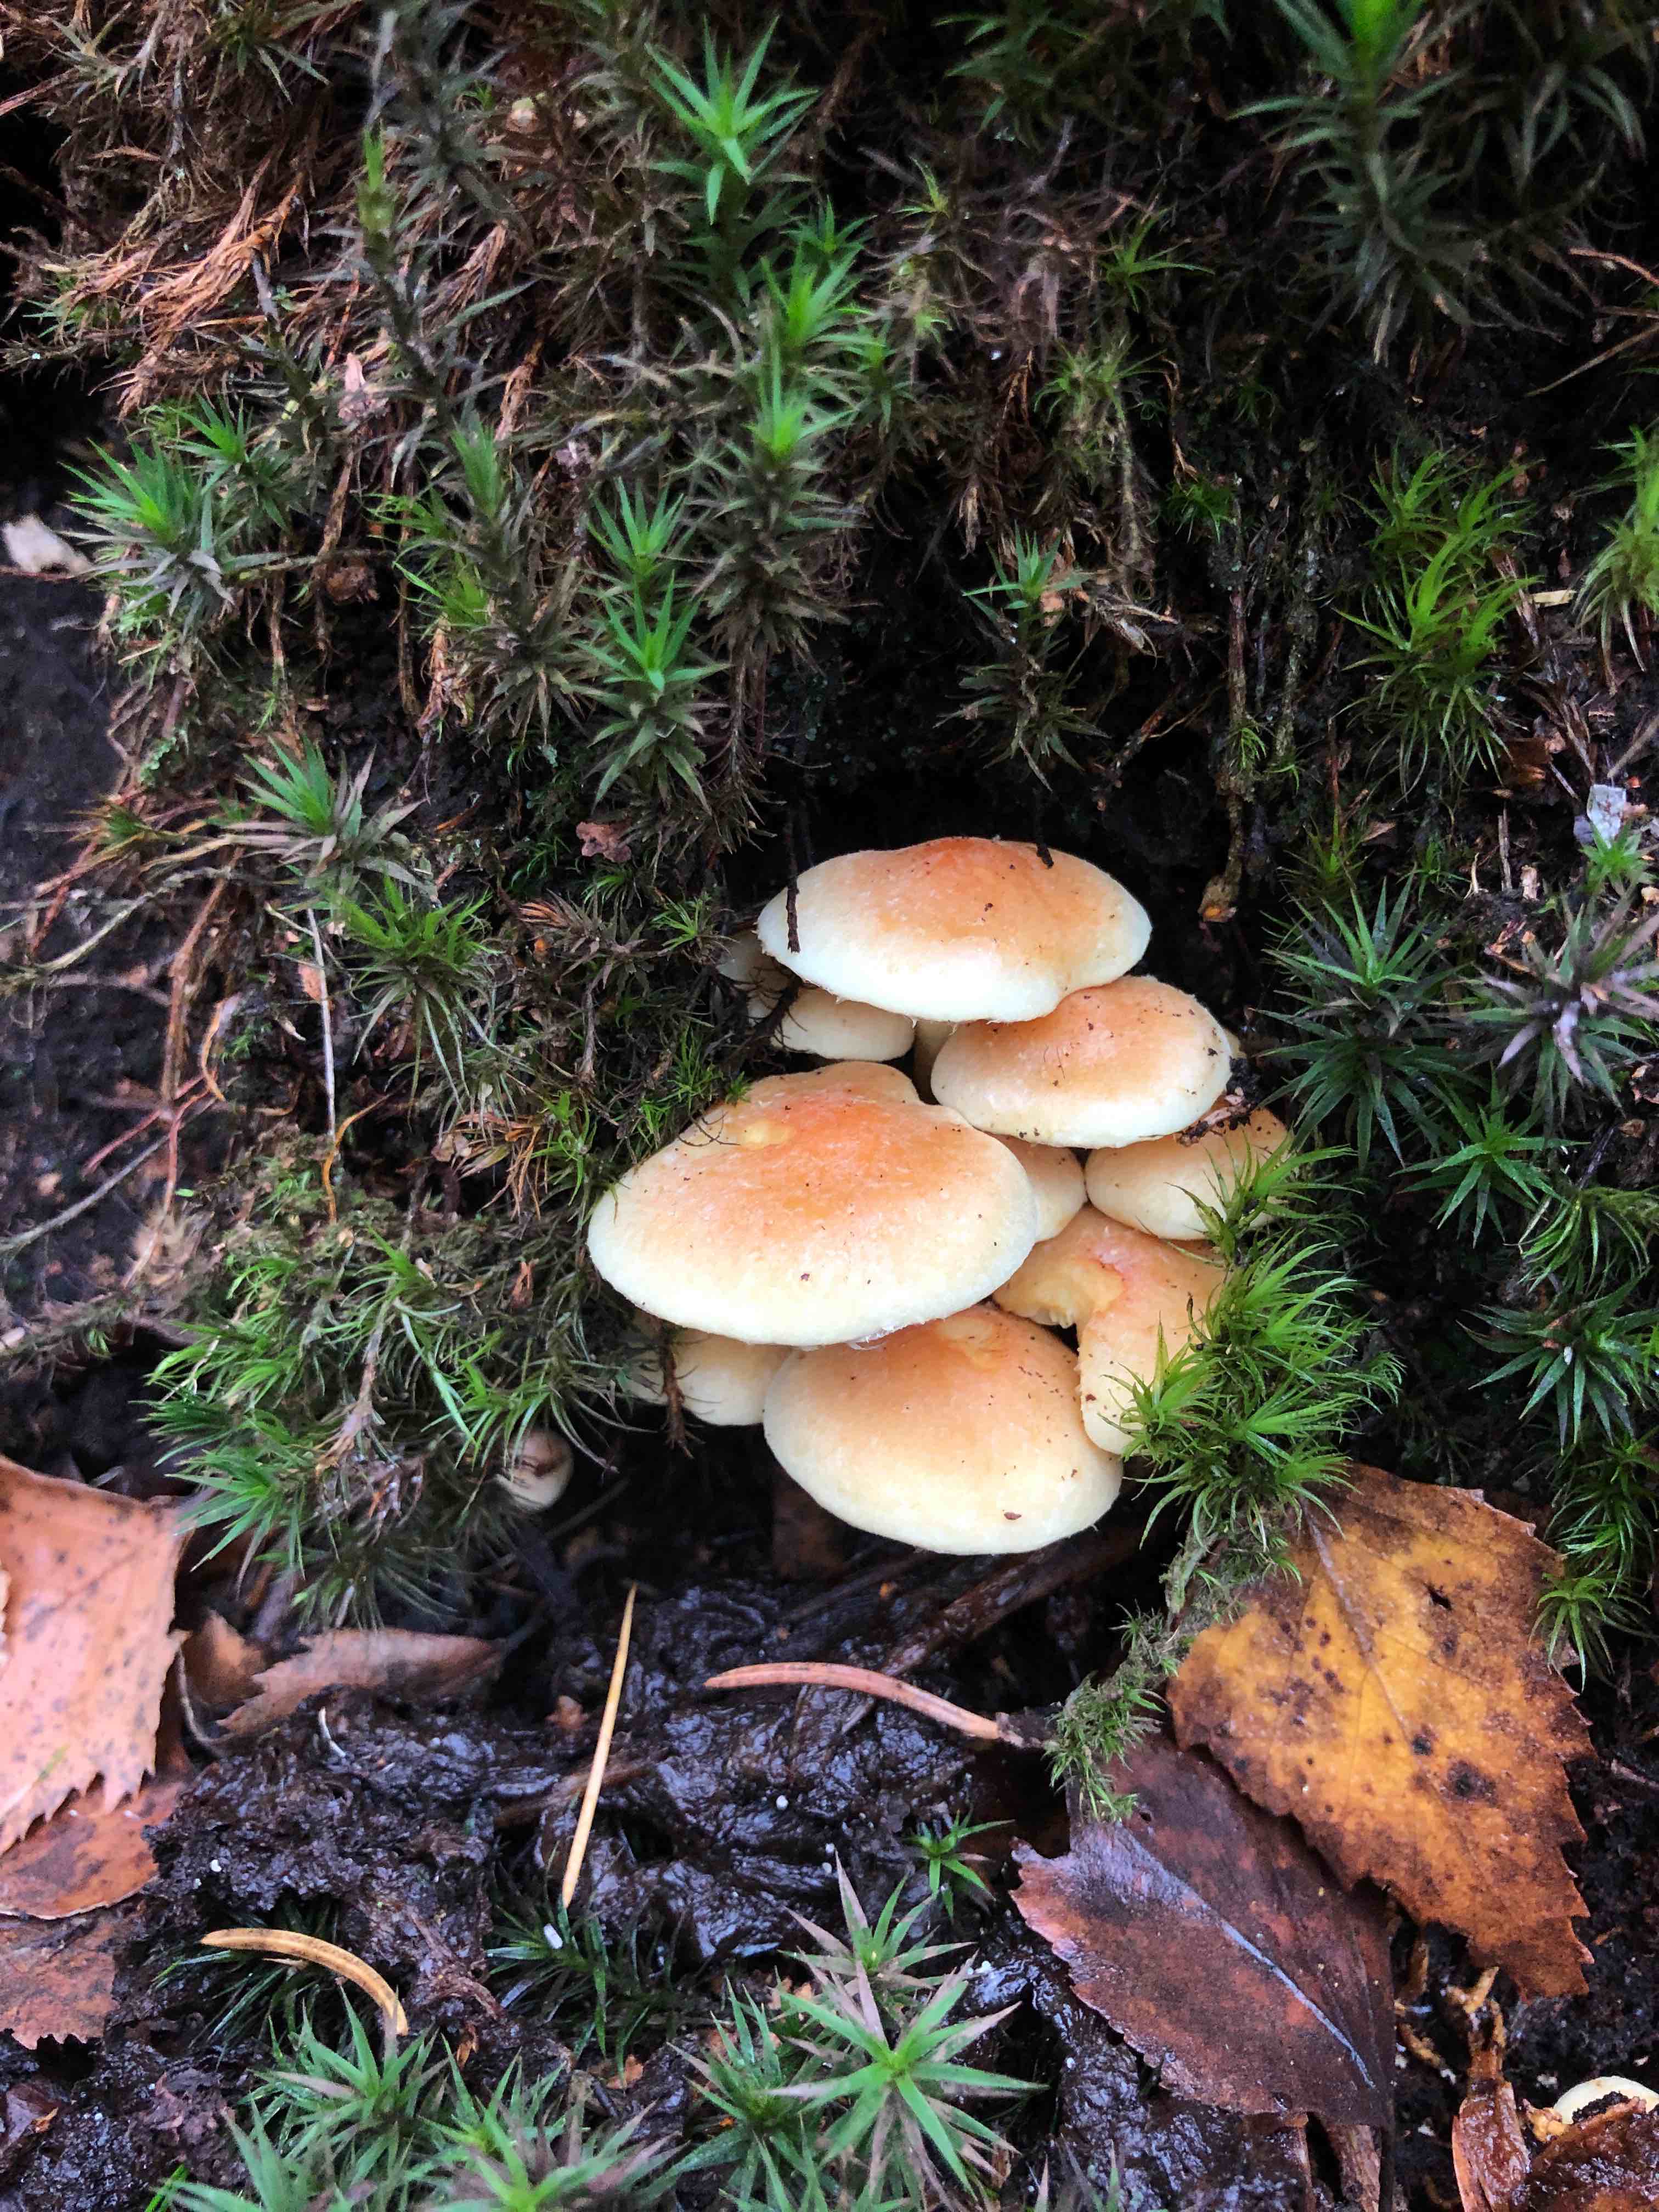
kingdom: Fungi
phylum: Basidiomycota
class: Agaricomycetes
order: Agaricales
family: Strophariaceae
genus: Hypholoma
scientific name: Hypholoma lateritium
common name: teglrød svovlhat
